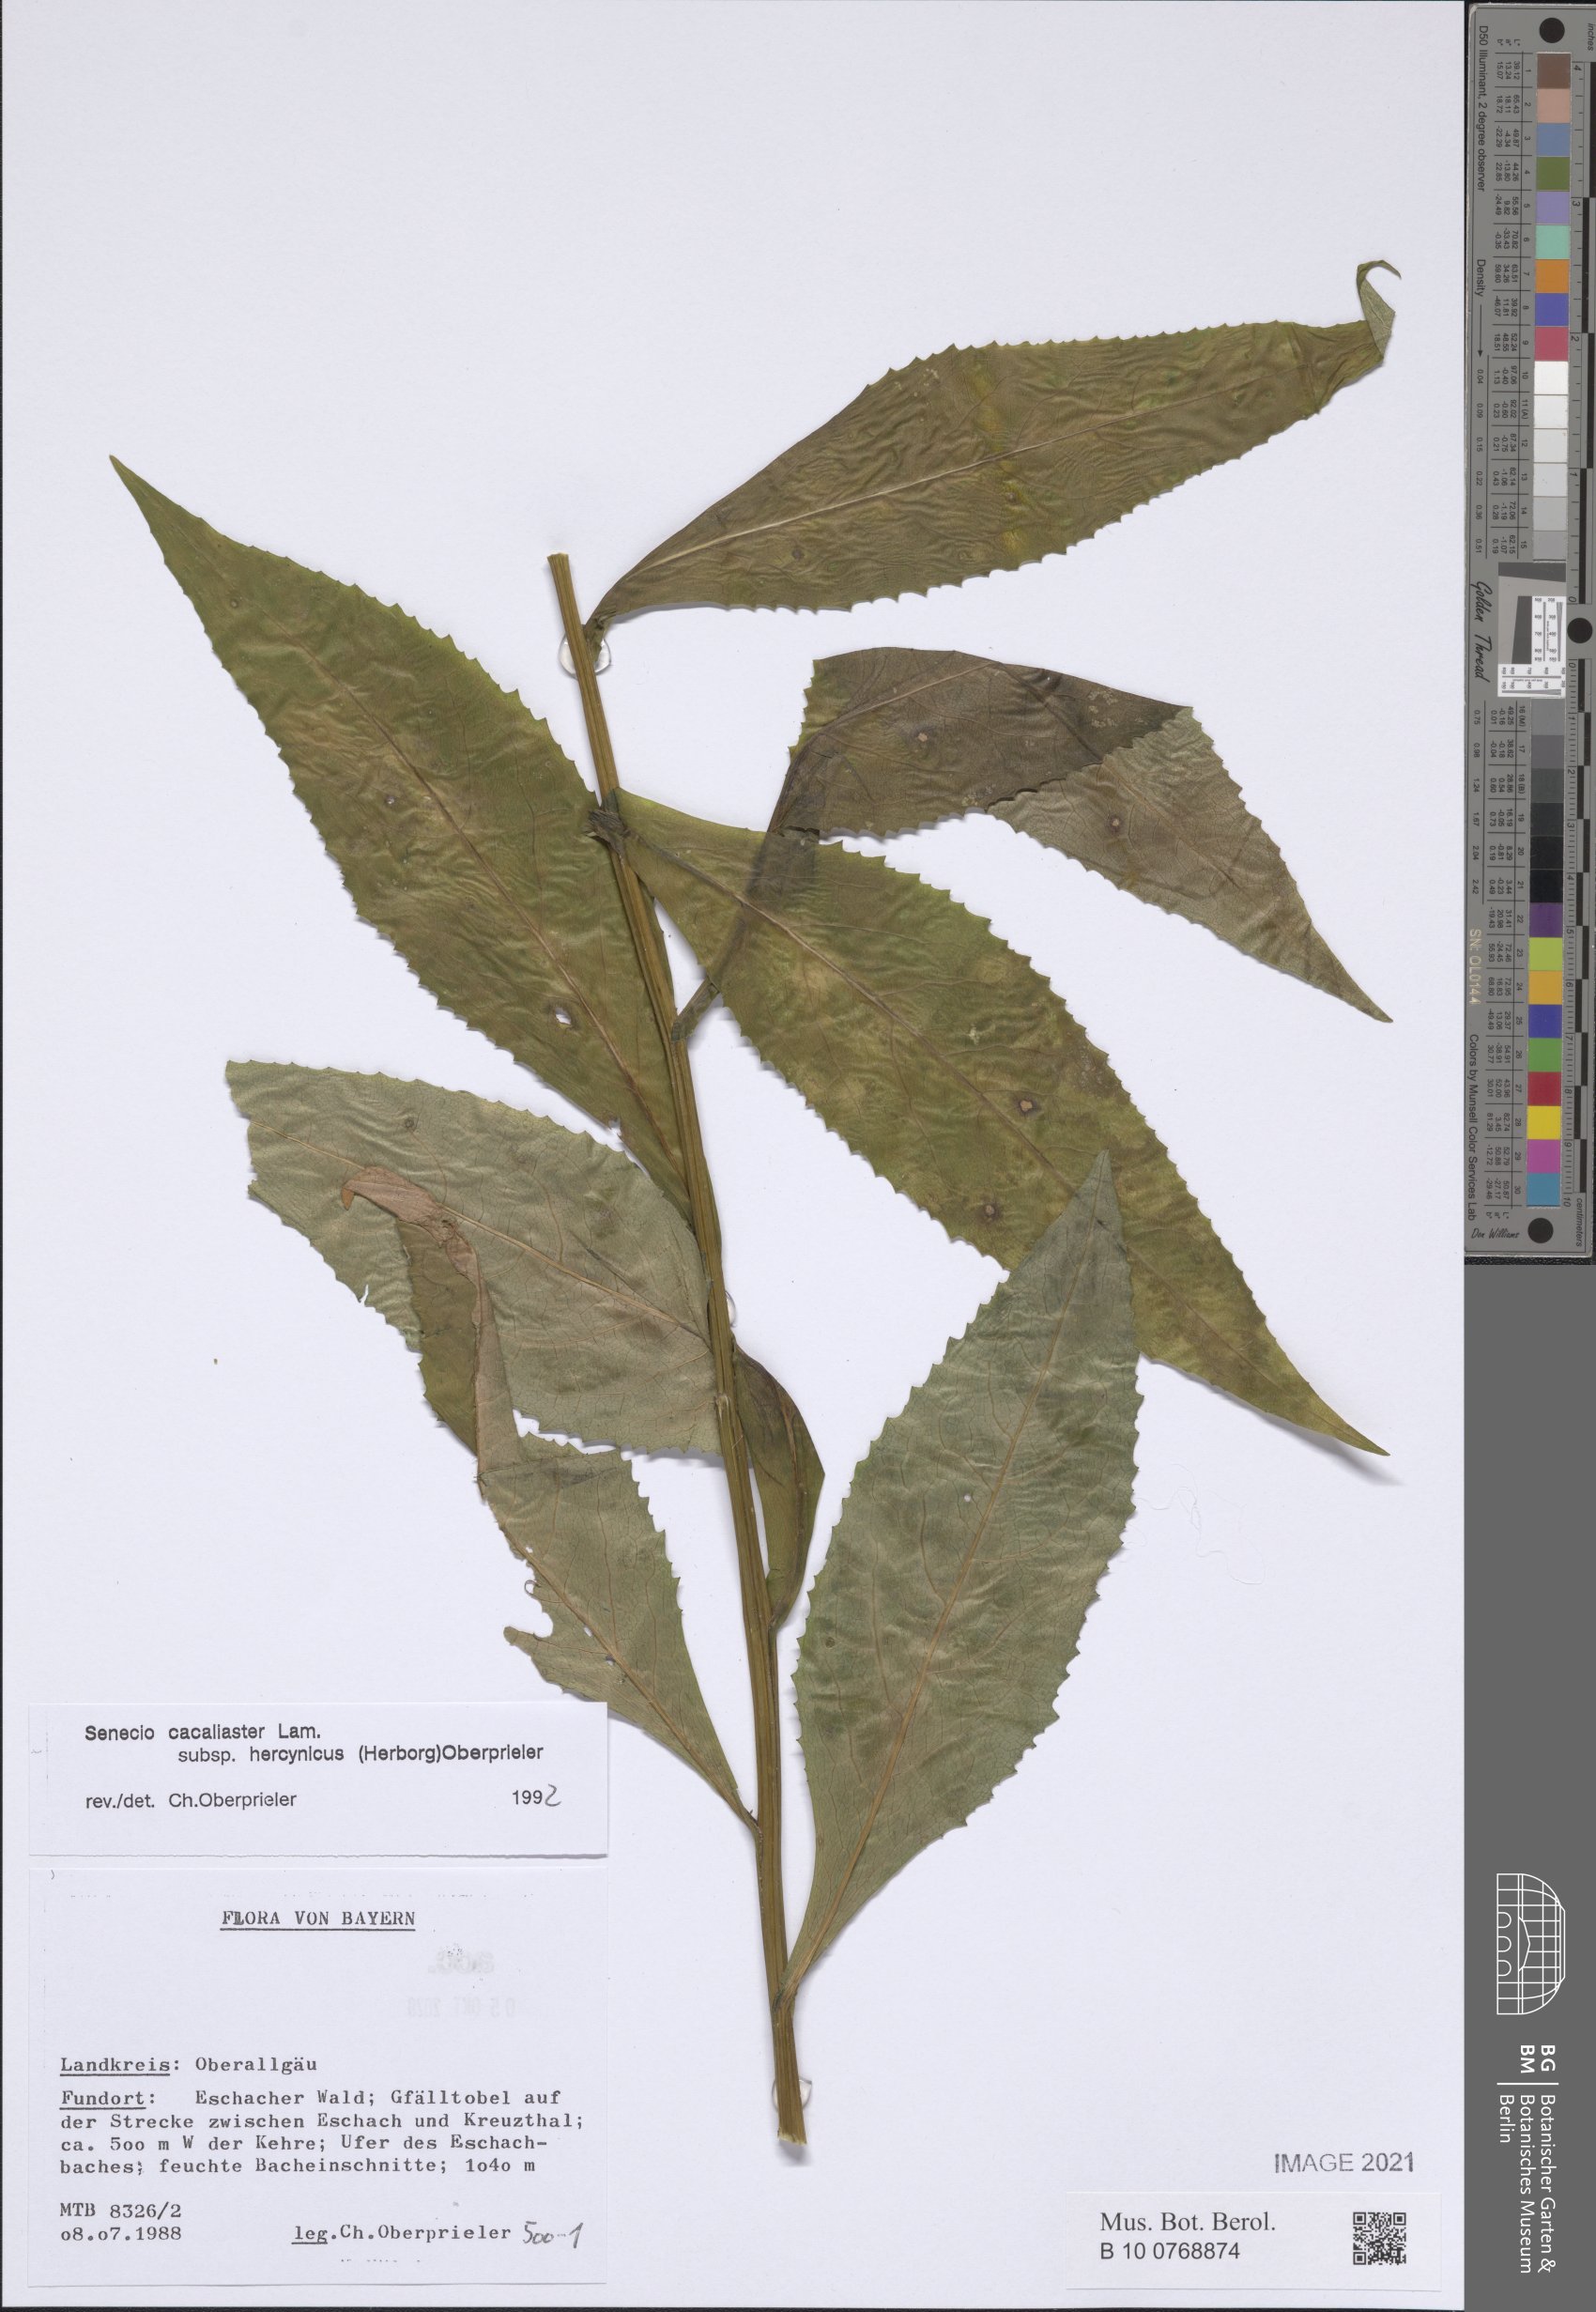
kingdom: Plantae
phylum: Tracheophyta
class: Magnoliopsida
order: Asterales
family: Asteraceae
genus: Senecio
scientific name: Senecio hercynicus
